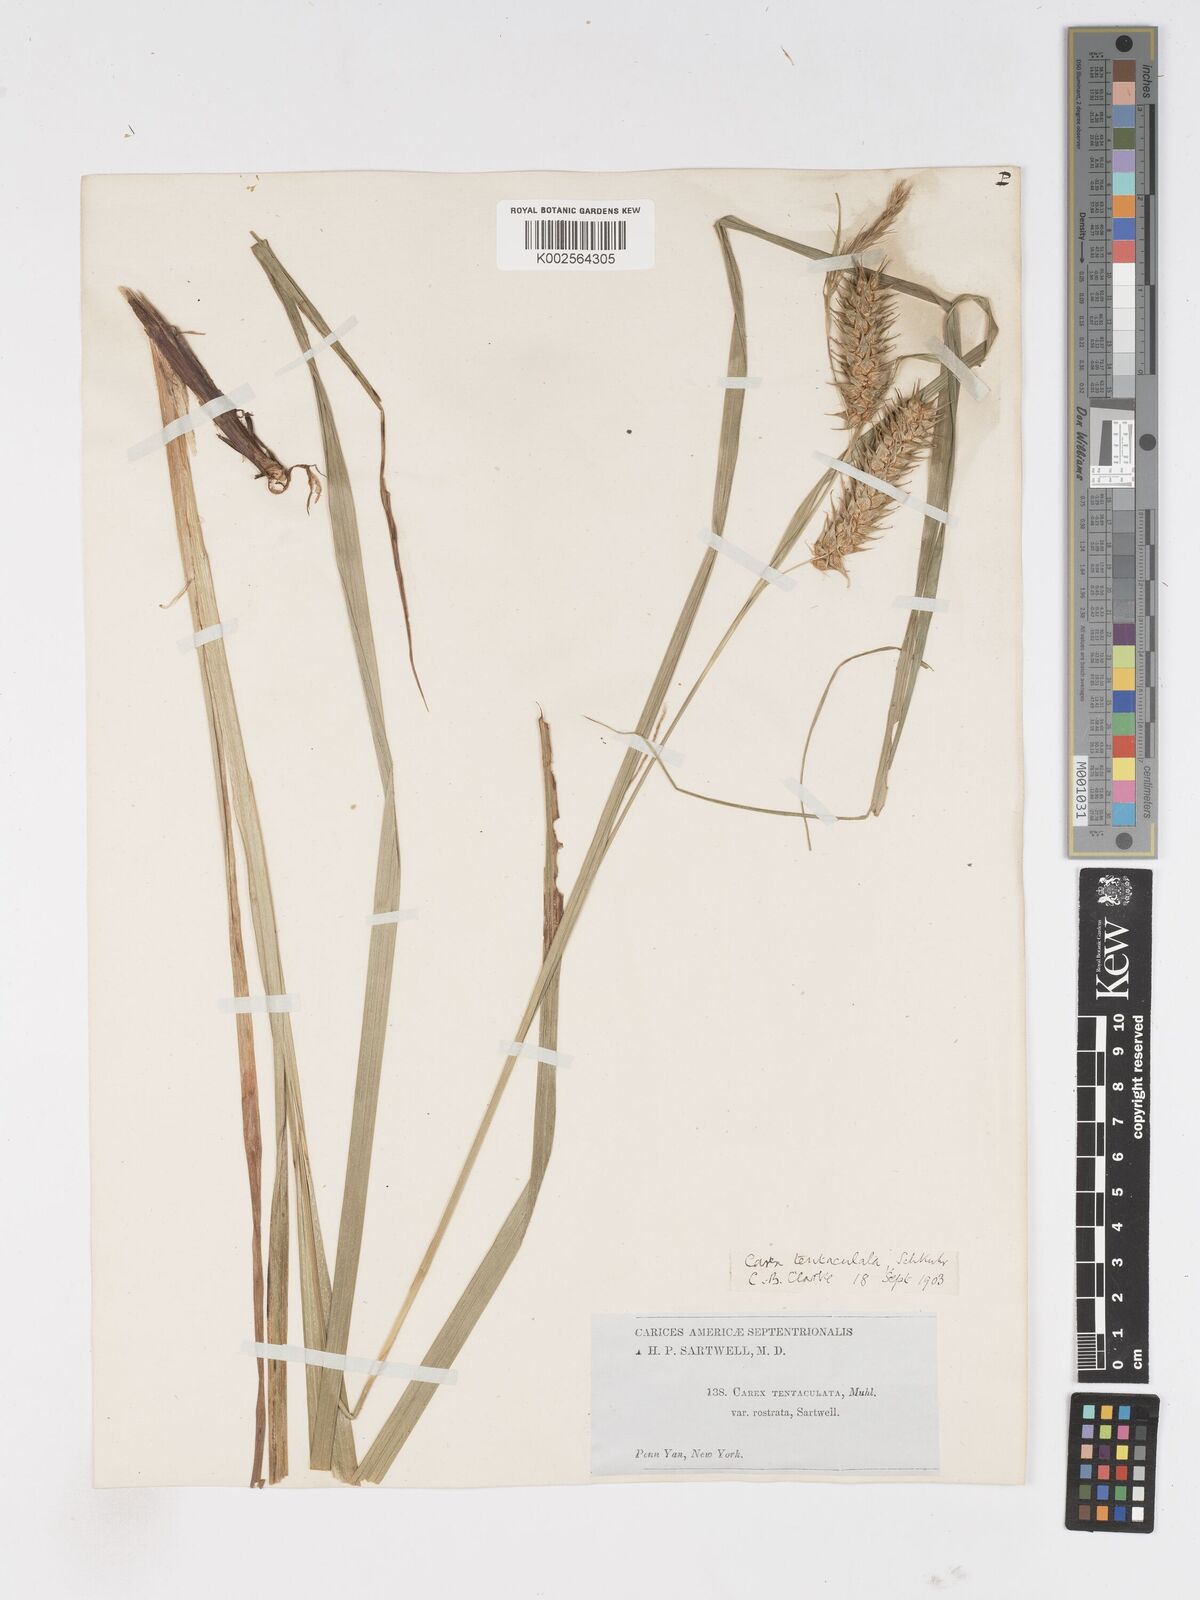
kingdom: Plantae
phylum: Tracheophyta
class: Liliopsida
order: Poales
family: Cyperaceae
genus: Carex
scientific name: Carex lurida
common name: Sallow sedge
